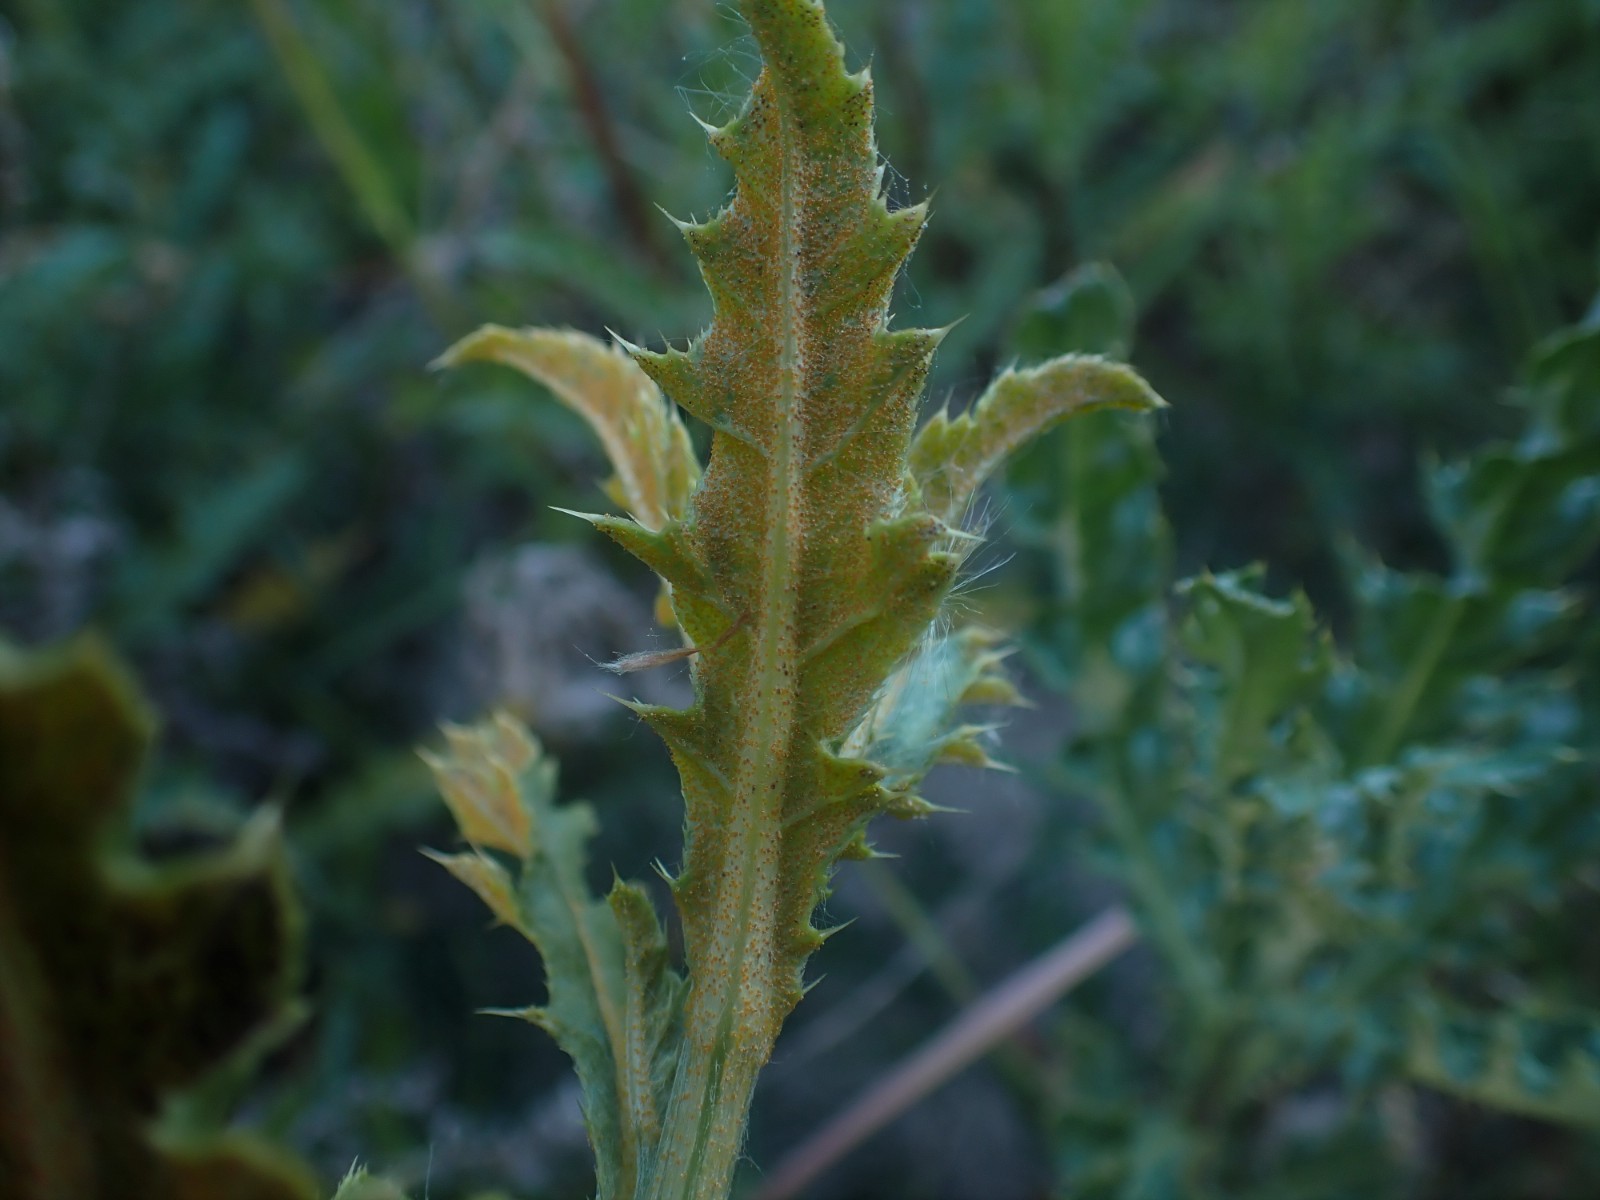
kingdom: Fungi
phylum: Basidiomycota
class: Pucciniomycetes
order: Pucciniales
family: Pucciniaceae
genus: Puccinia
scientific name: Puccinia suaveolens
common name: tidsel-tvecellerust
